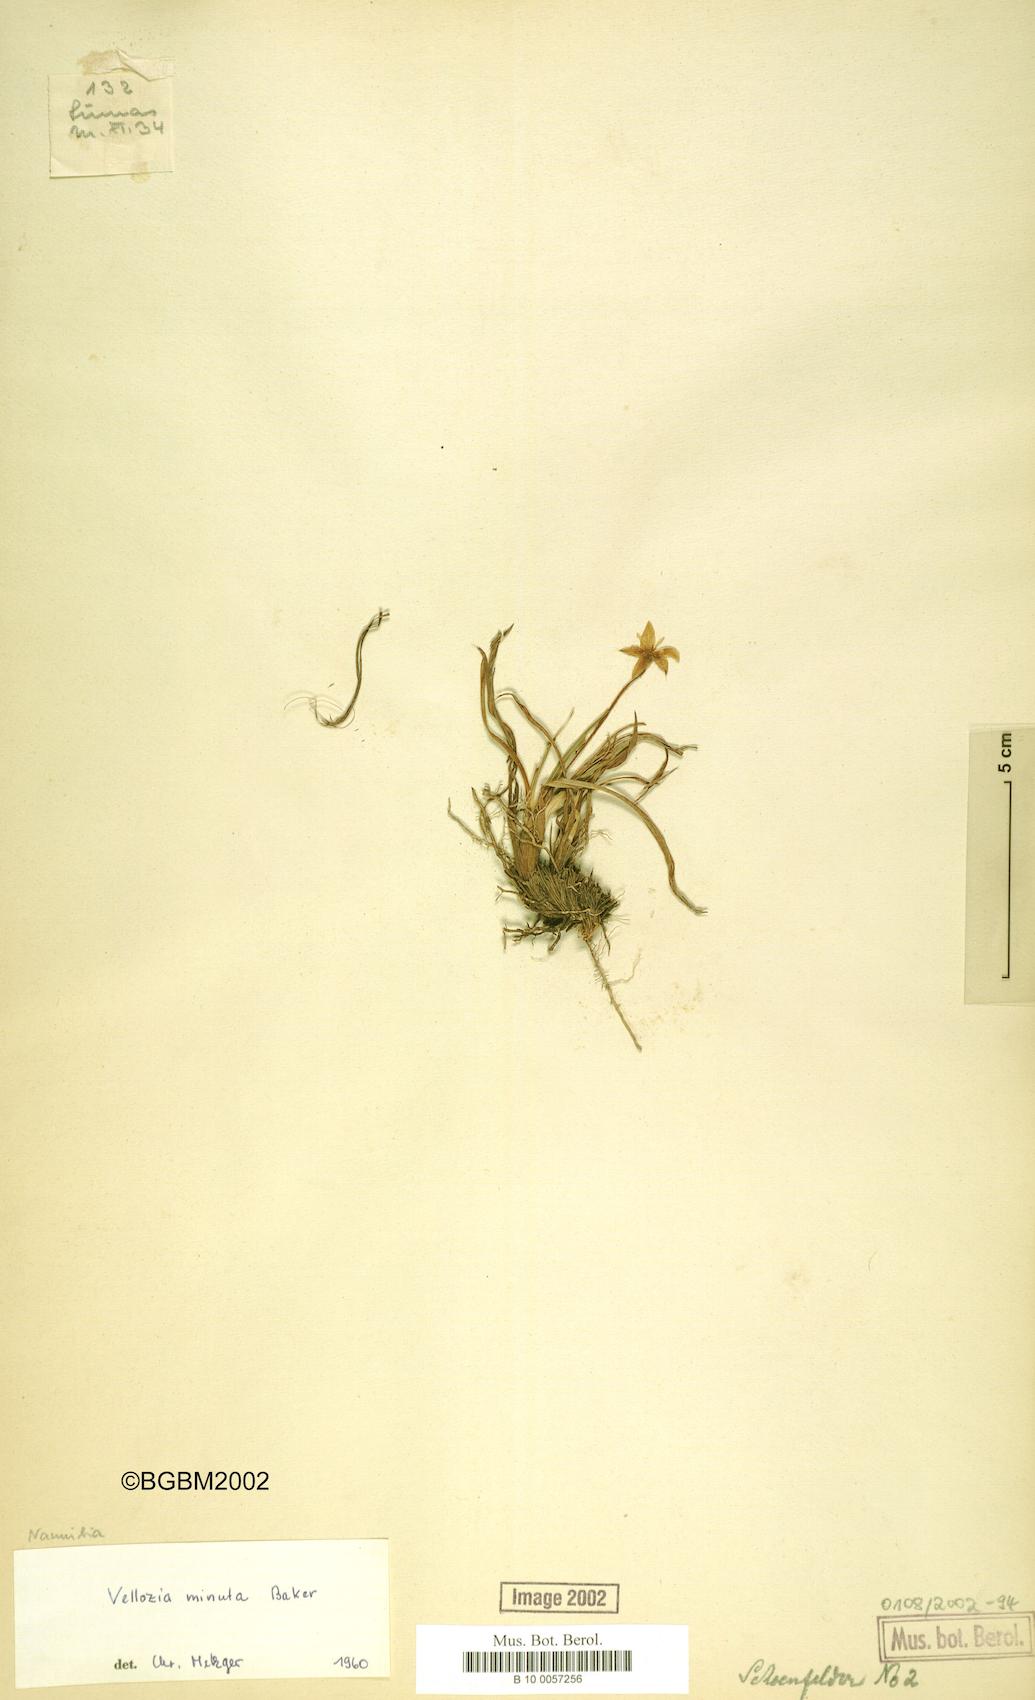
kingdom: Plantae
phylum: Tracheophyta
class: Liliopsida
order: Pandanales
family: Velloziaceae
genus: Xerophyta
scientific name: Xerophyta elegans
